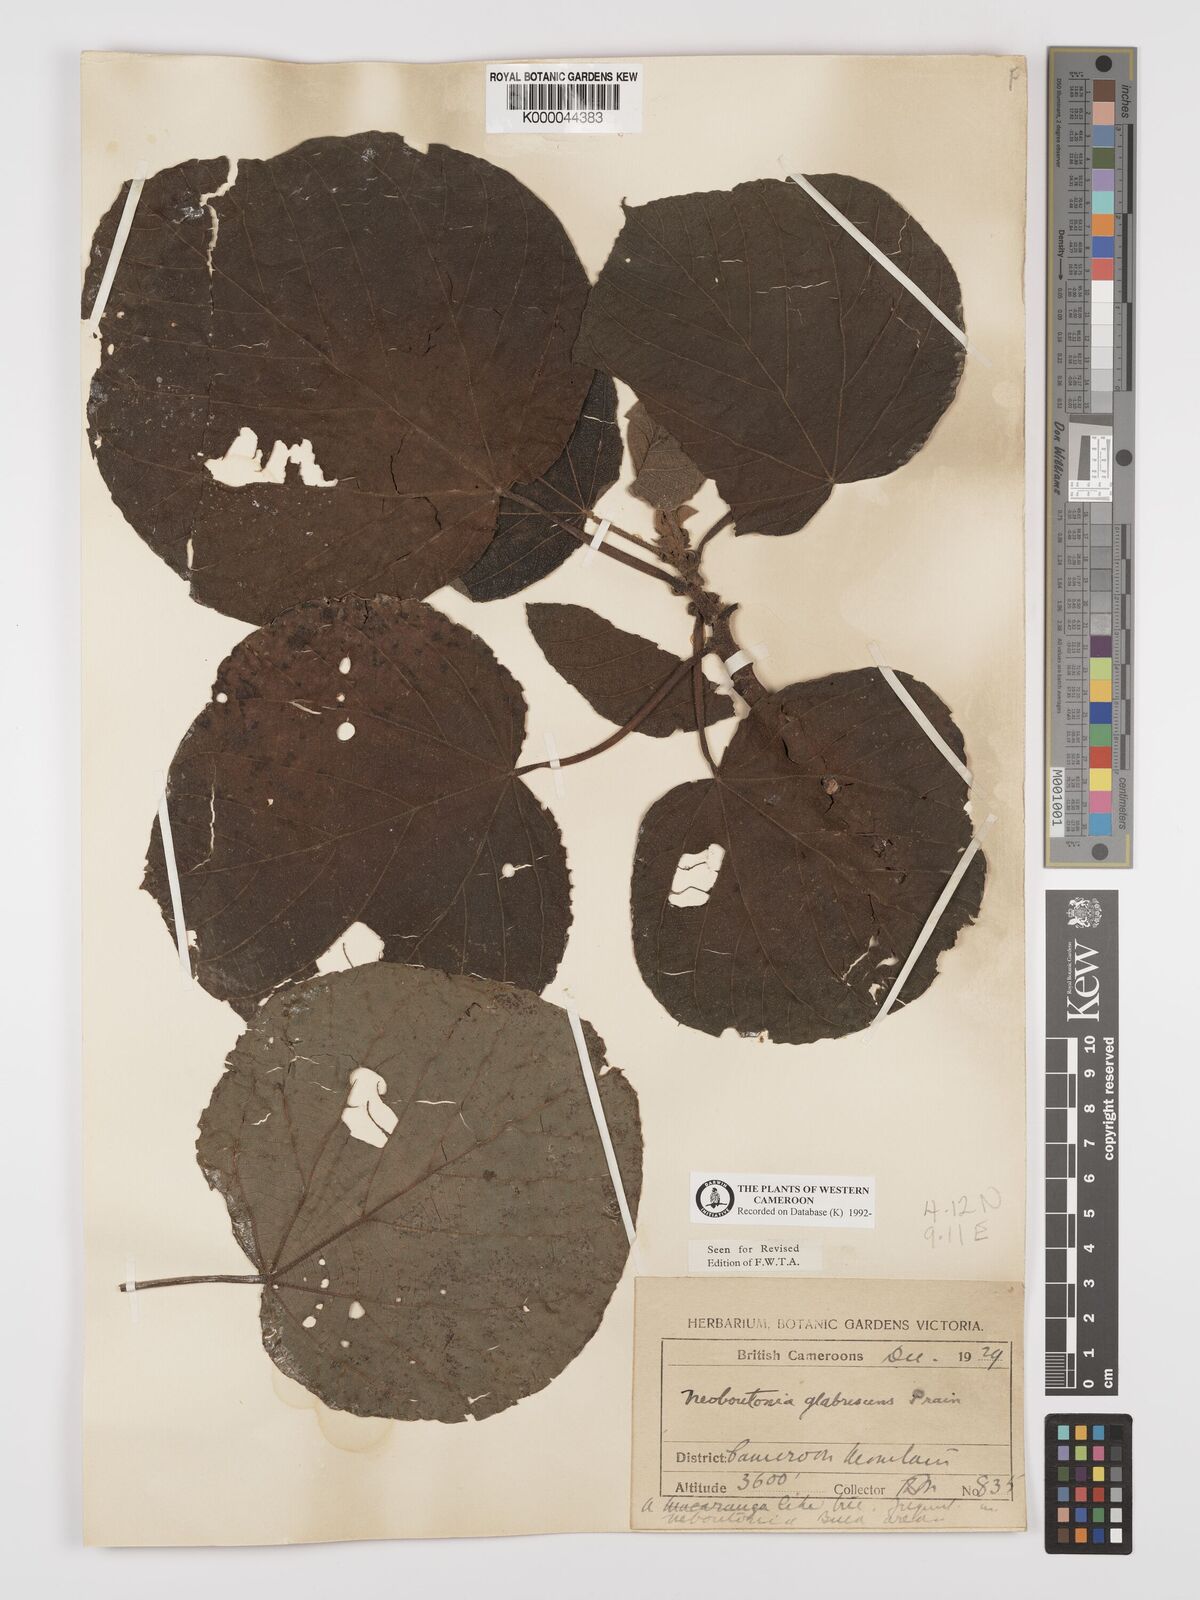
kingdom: Plantae
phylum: Tracheophyta
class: Magnoliopsida
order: Malpighiales
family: Euphorbiaceae
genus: Neoboutonia
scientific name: Neoboutonia mannii
